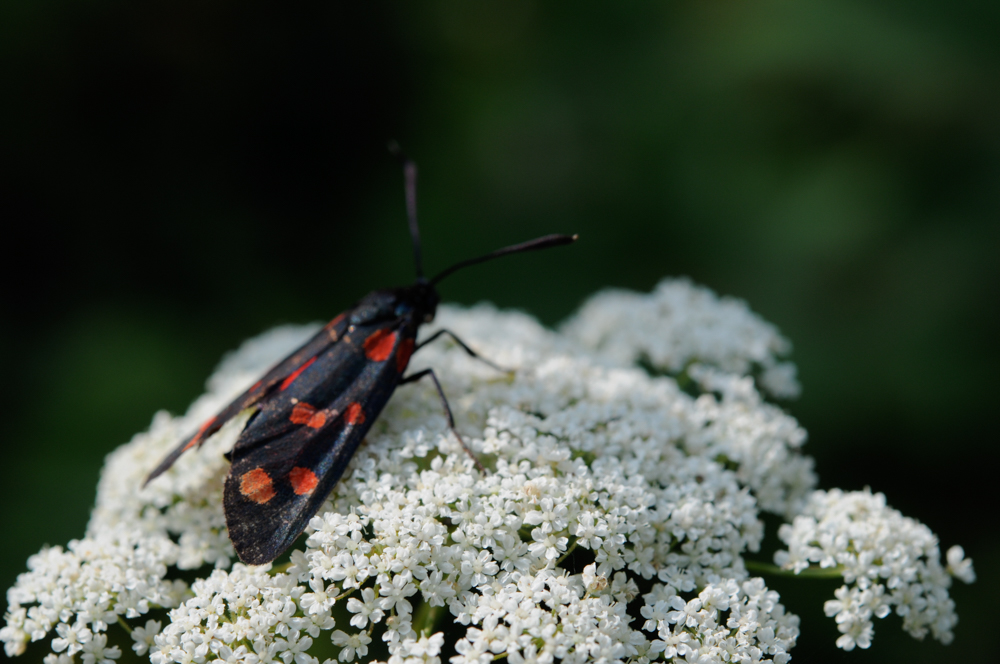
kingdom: Animalia
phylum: Arthropoda
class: Insecta
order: Lepidoptera
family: Zygaenidae
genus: Zygaena
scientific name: Zygaena lonicerae
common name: Narrow-bordered five-spot burnet
